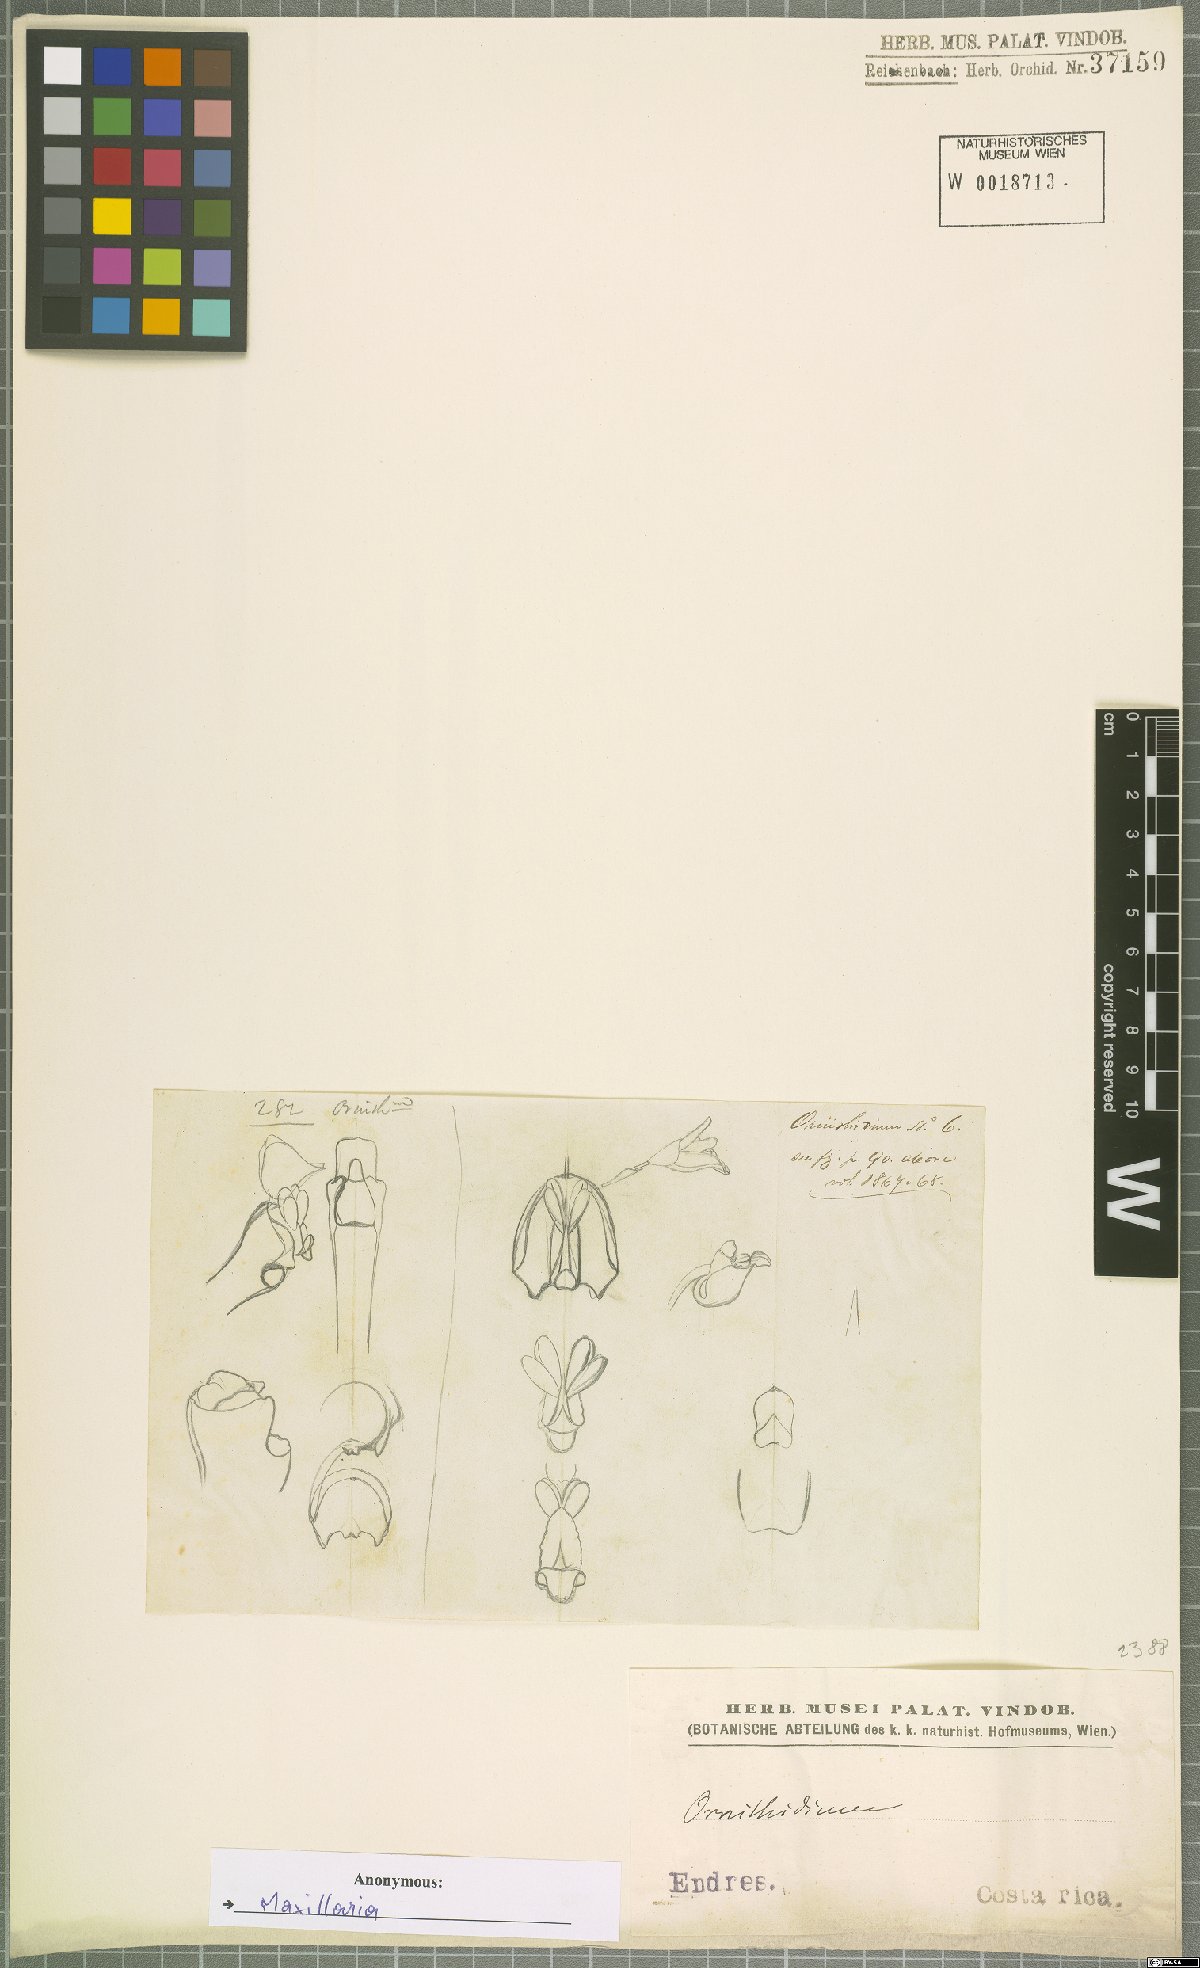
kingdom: Plantae
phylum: Tracheophyta
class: Liliopsida
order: Asparagales
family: Orchidaceae
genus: Maxillaria
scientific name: Maxillaria
